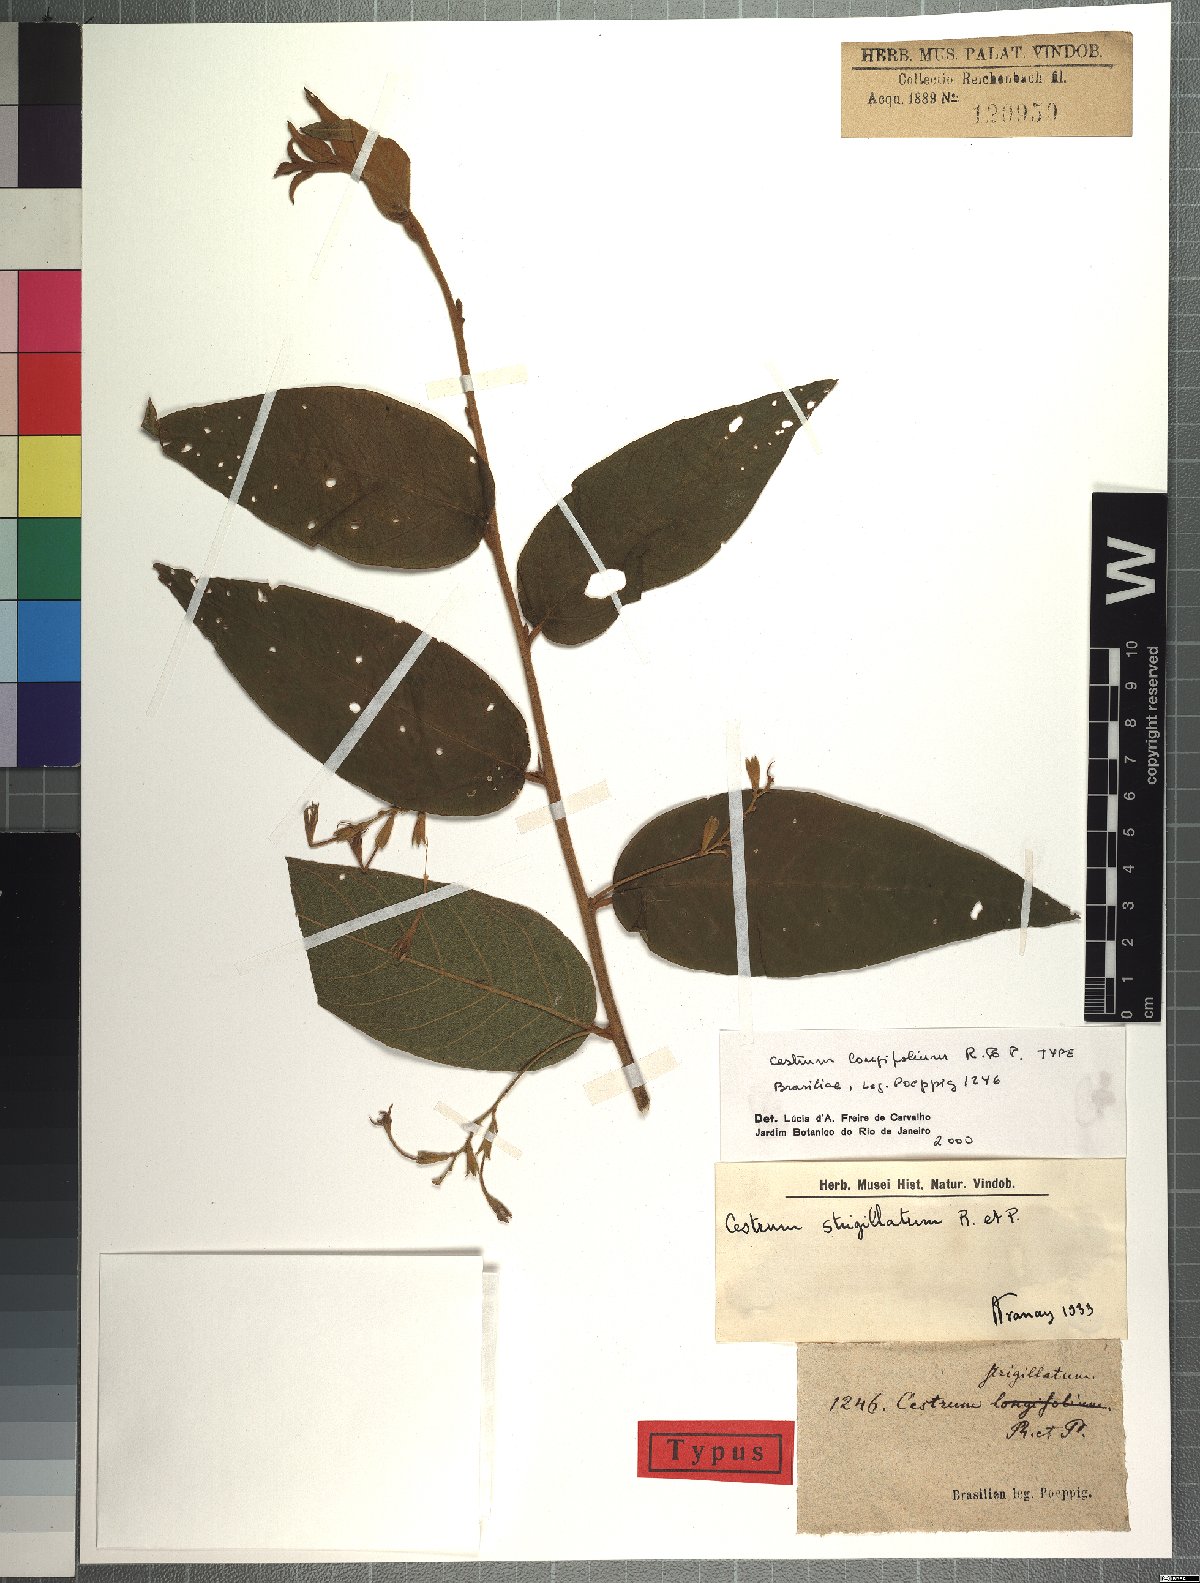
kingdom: Plantae
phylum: Tracheophyta
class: Magnoliopsida
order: Solanales
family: Solanaceae
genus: Cestrum
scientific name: Cestrum strigillatum
